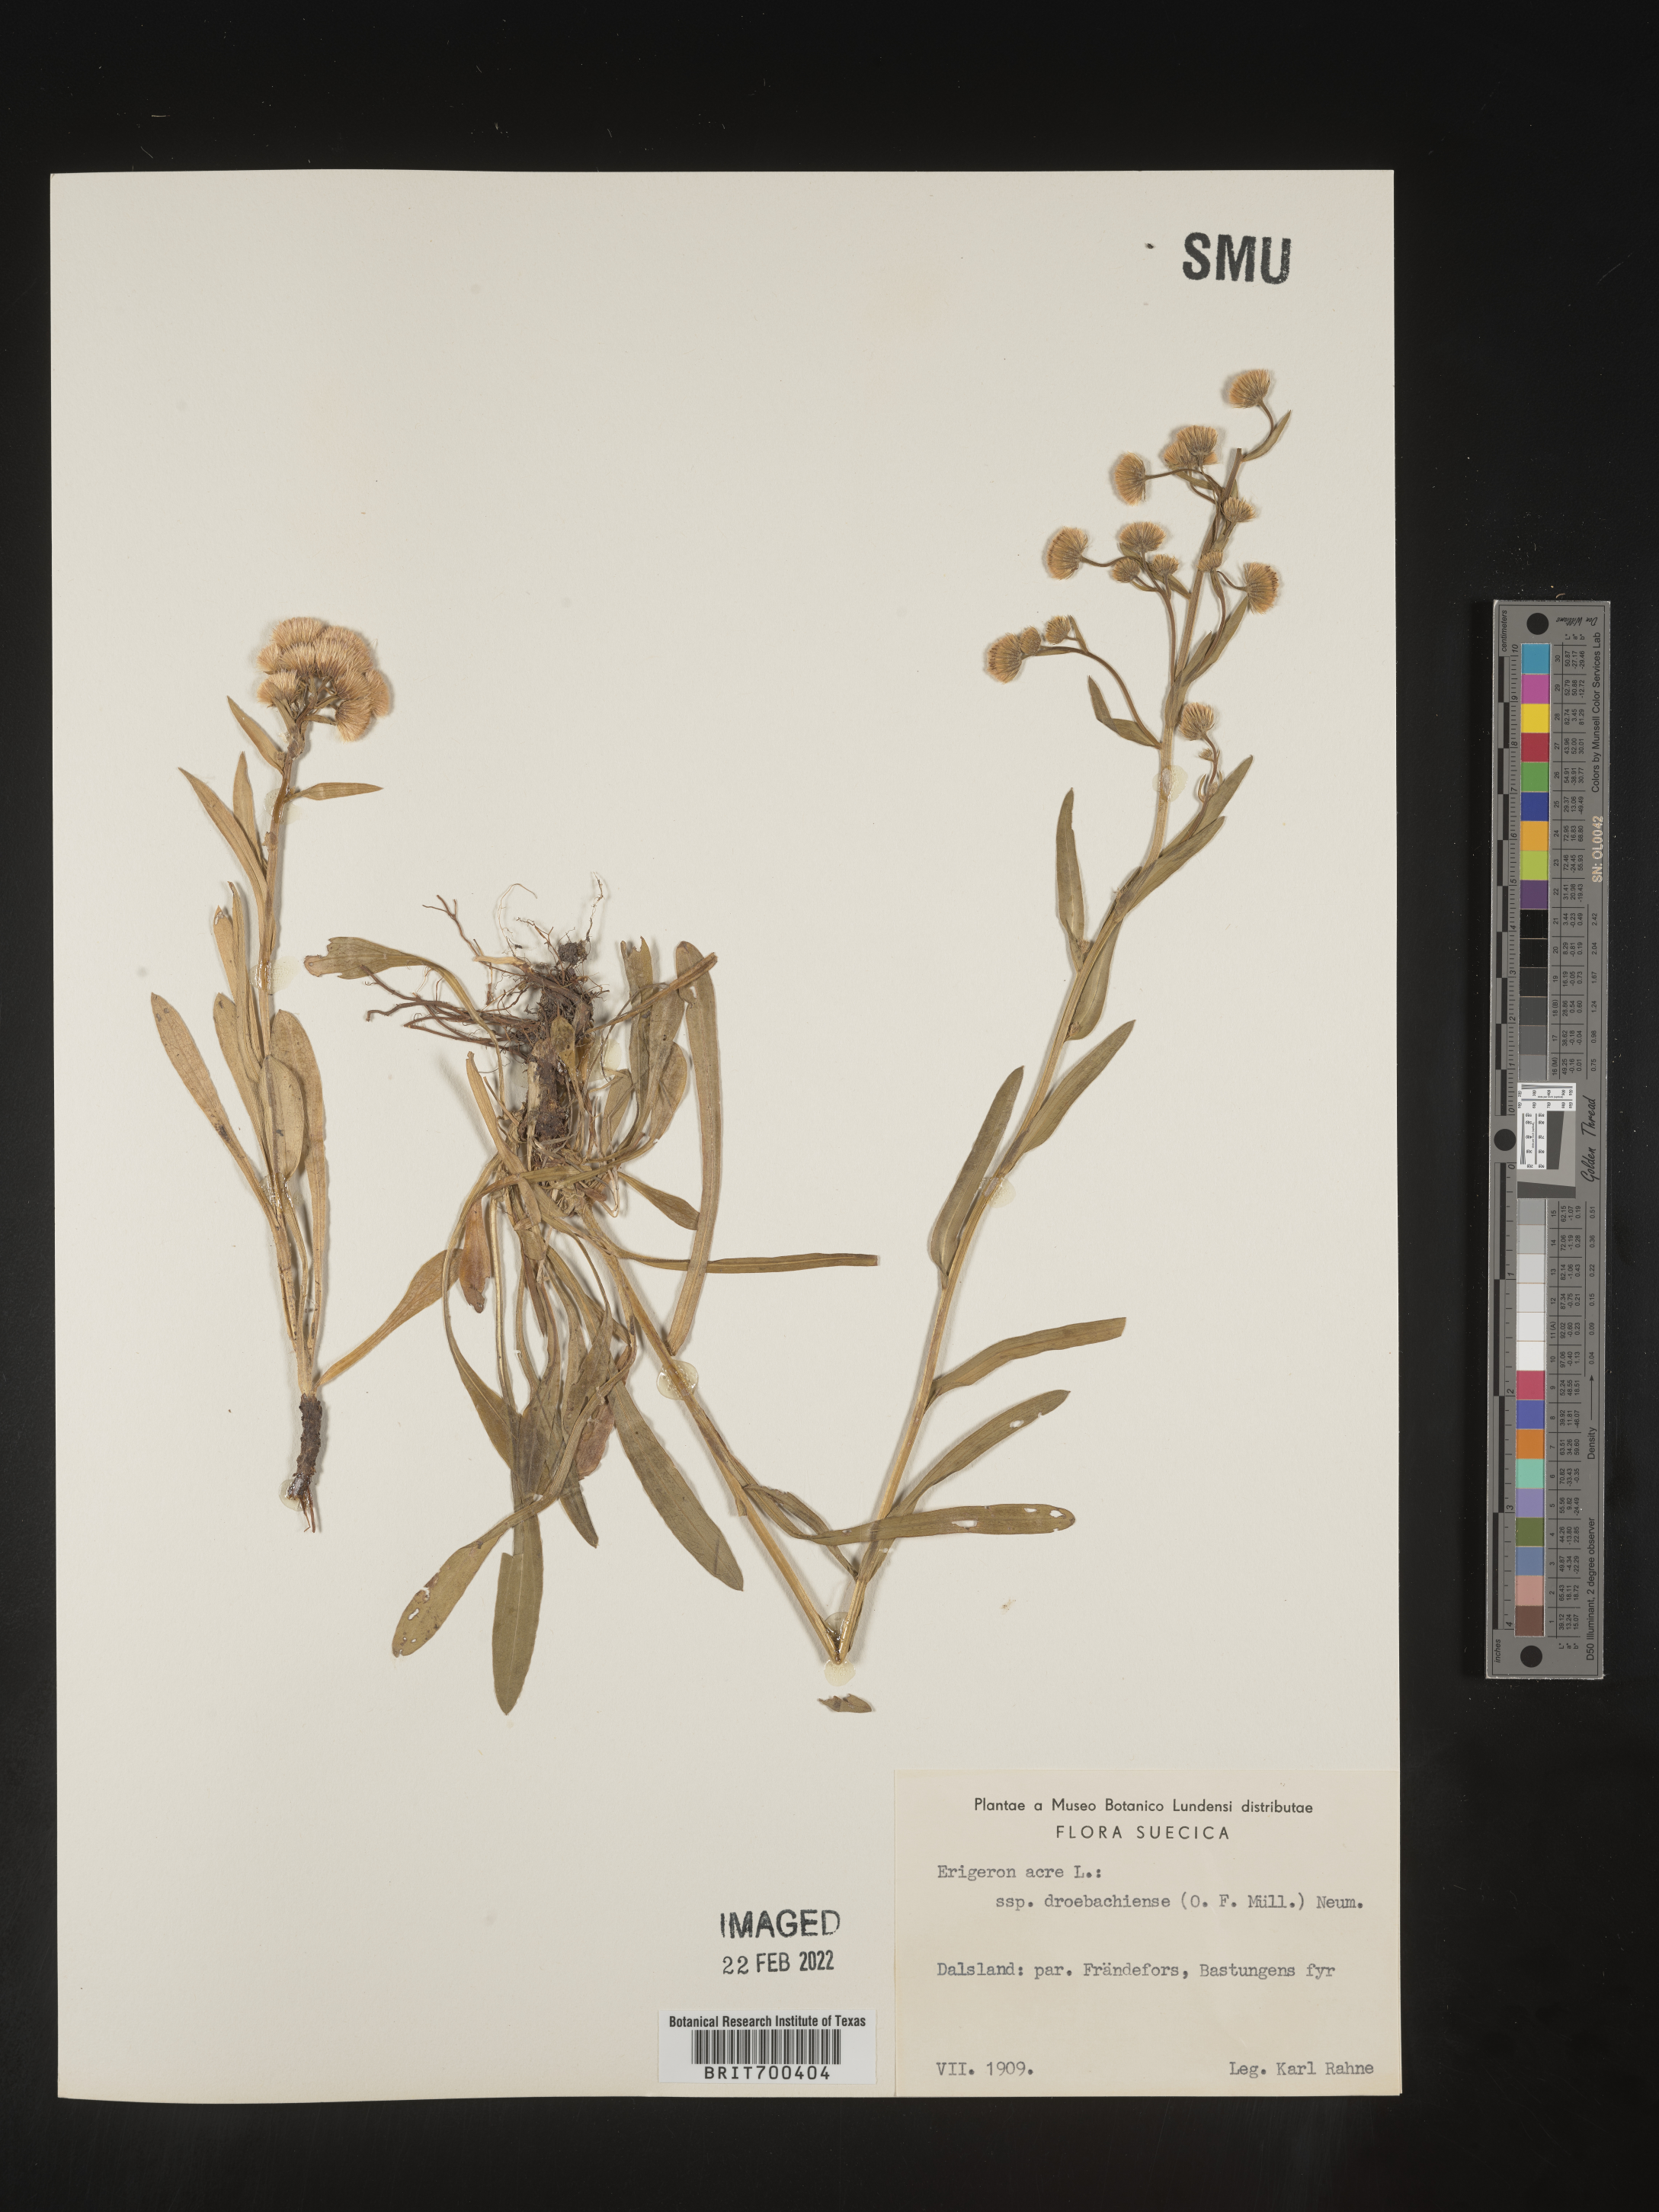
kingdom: Plantae
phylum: Tracheophyta
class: Magnoliopsida
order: Asterales
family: Asteraceae
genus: Erigeron
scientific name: Erigeron
